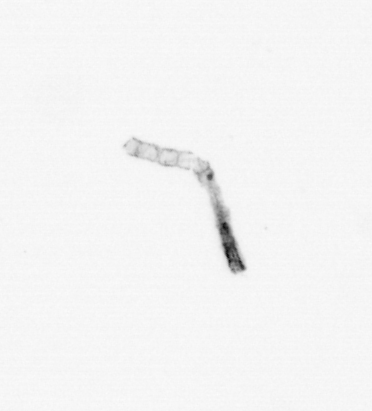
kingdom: Chromista
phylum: Ochrophyta
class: Bacillariophyceae
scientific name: Bacillariophyceae
